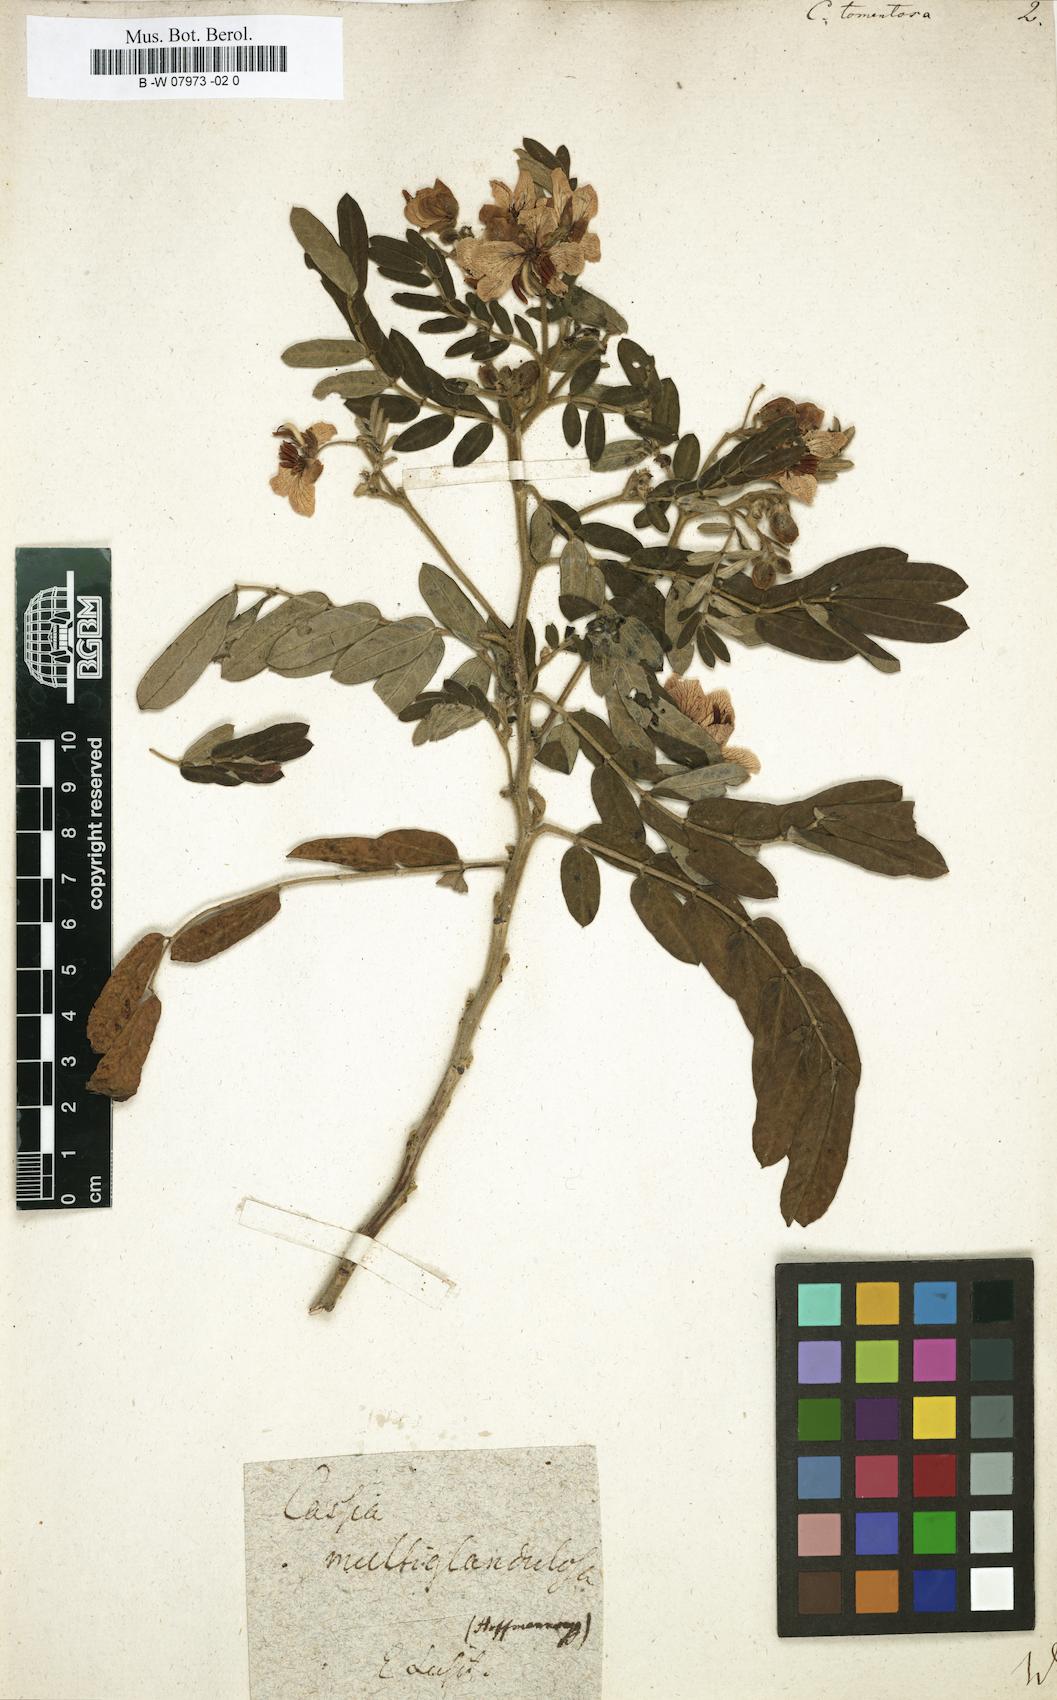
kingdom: Plantae
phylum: Tracheophyta
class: Magnoliopsida
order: Fabales
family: Fabaceae
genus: Senna
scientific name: Senna
